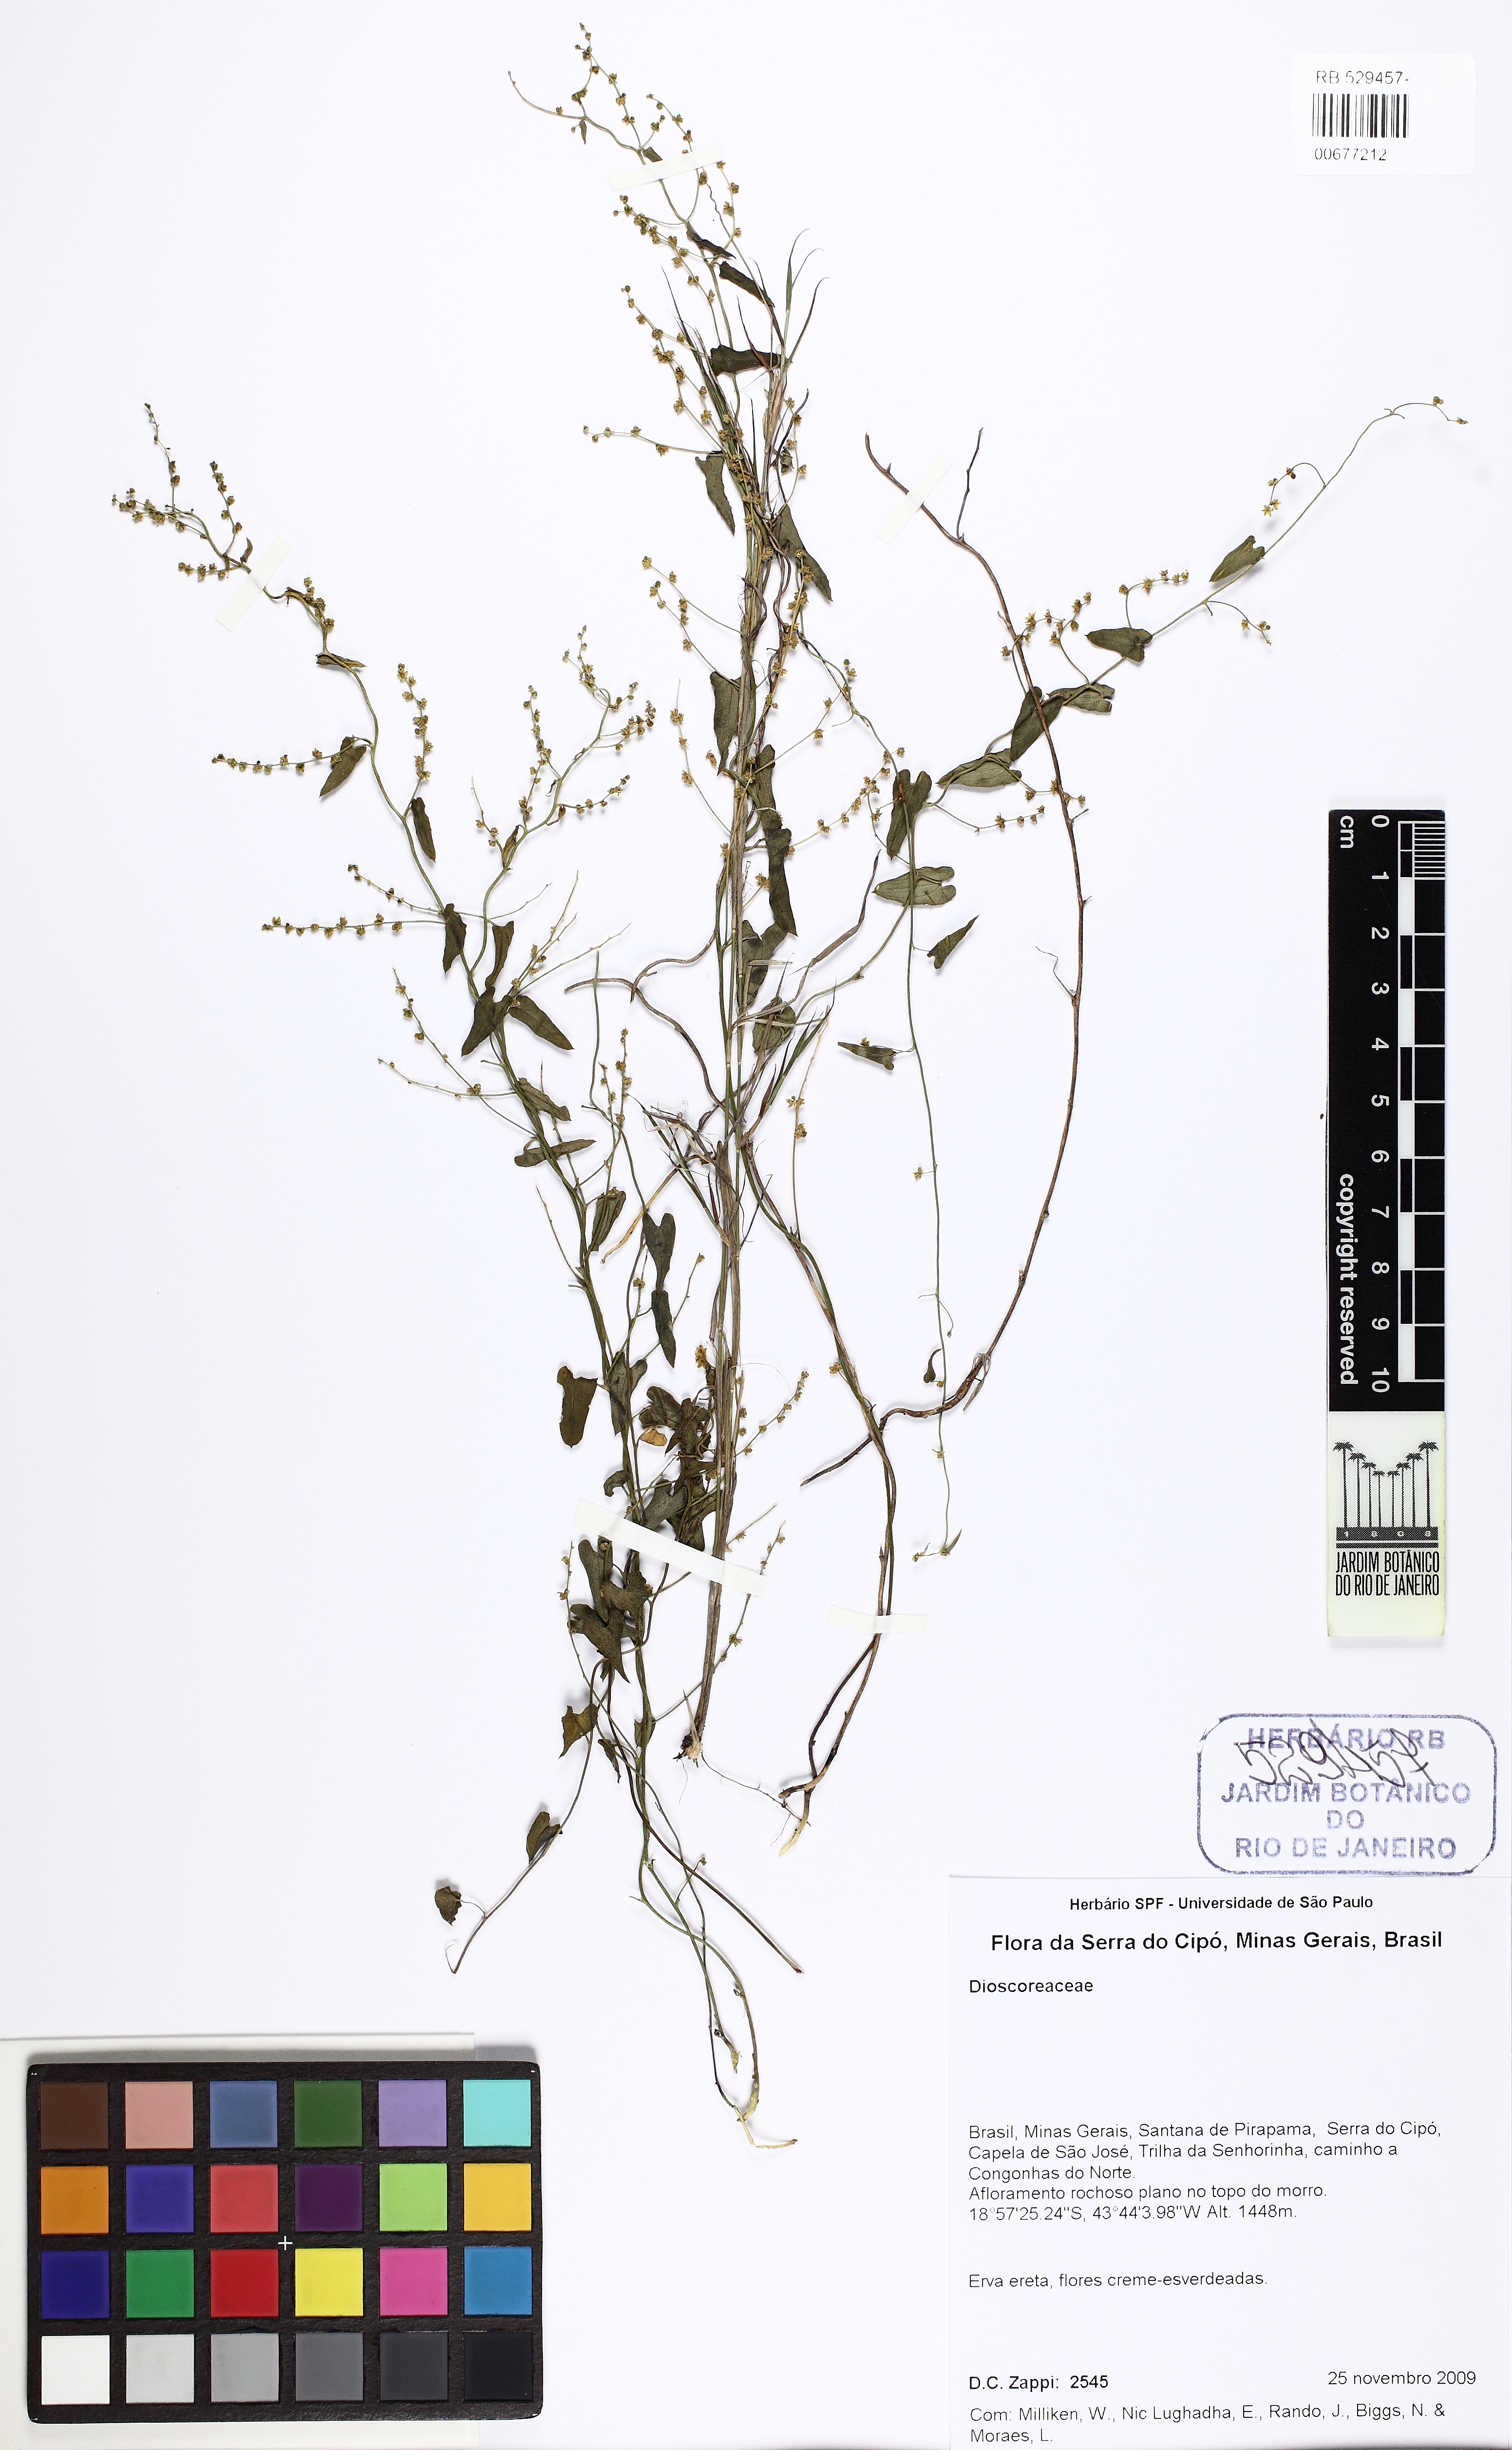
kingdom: Plantae
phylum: Tracheophyta
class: Liliopsida
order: Dioscoreales
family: Dioscoreaceae
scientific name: Dioscoreaceae
